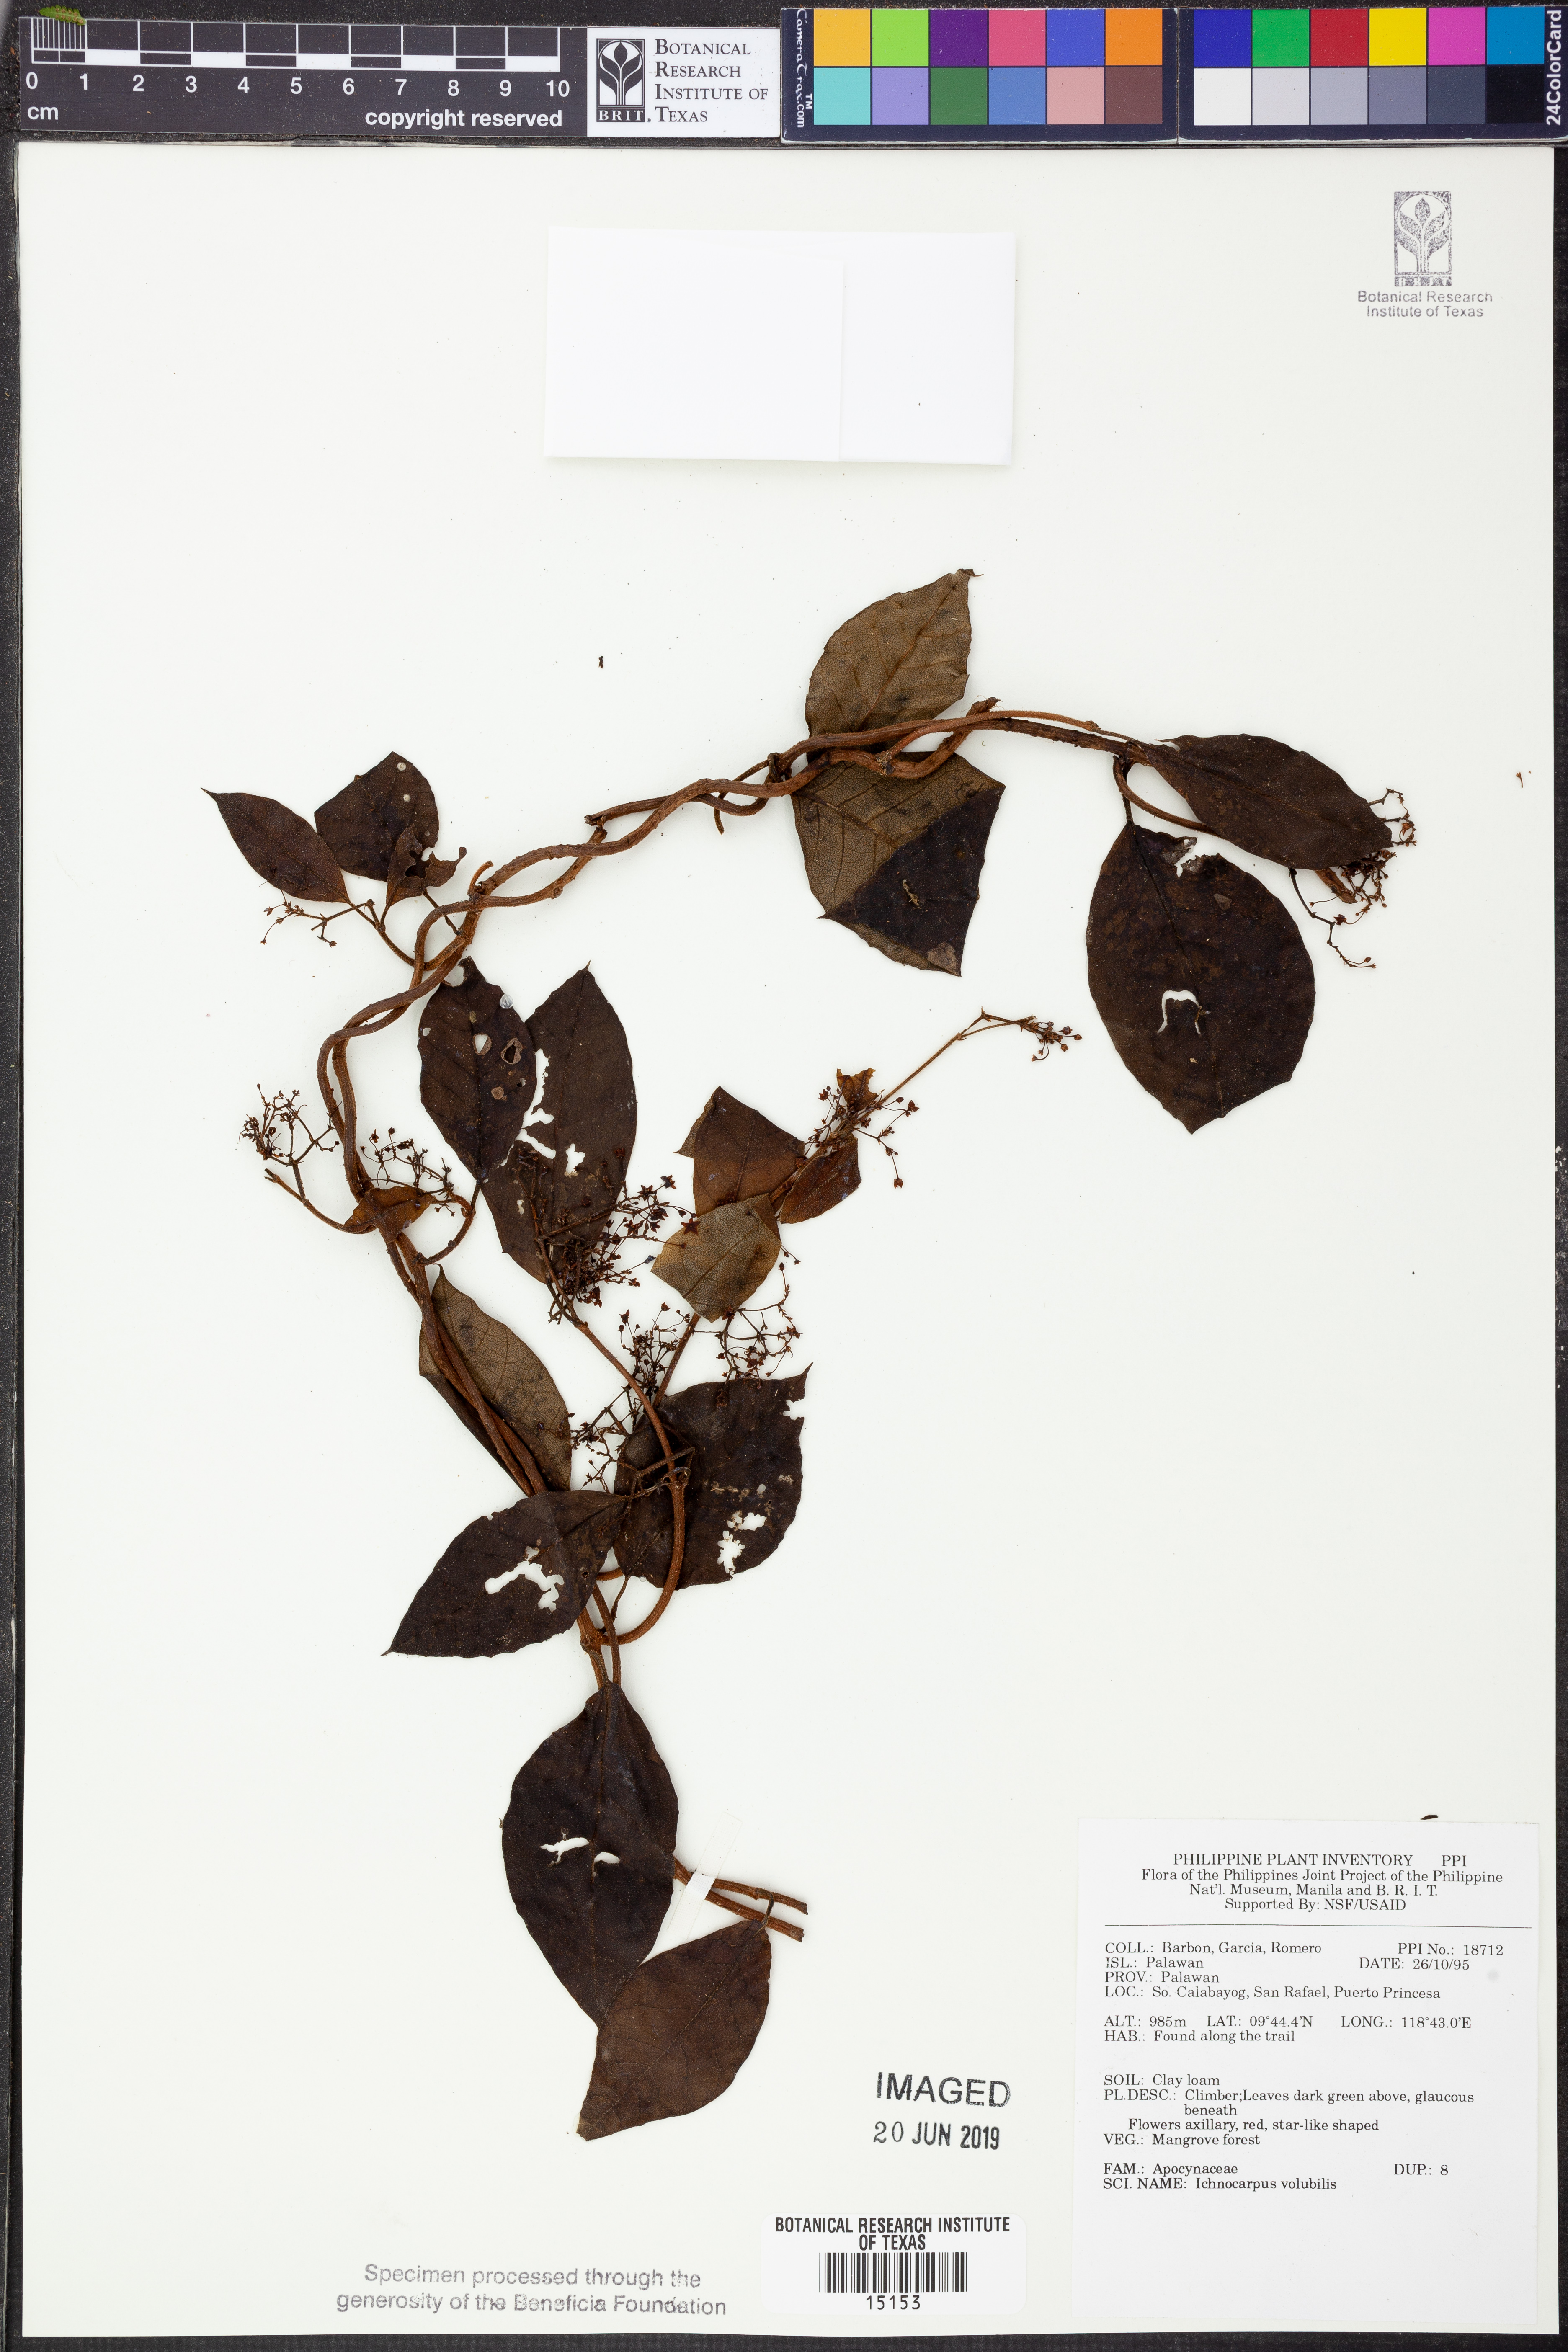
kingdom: Plantae
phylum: Tracheophyta
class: Magnoliopsida
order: Gentianales
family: Apocynaceae
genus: Ichnocarpus
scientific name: Ichnocarpus frutescens
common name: Ichnocarpus
